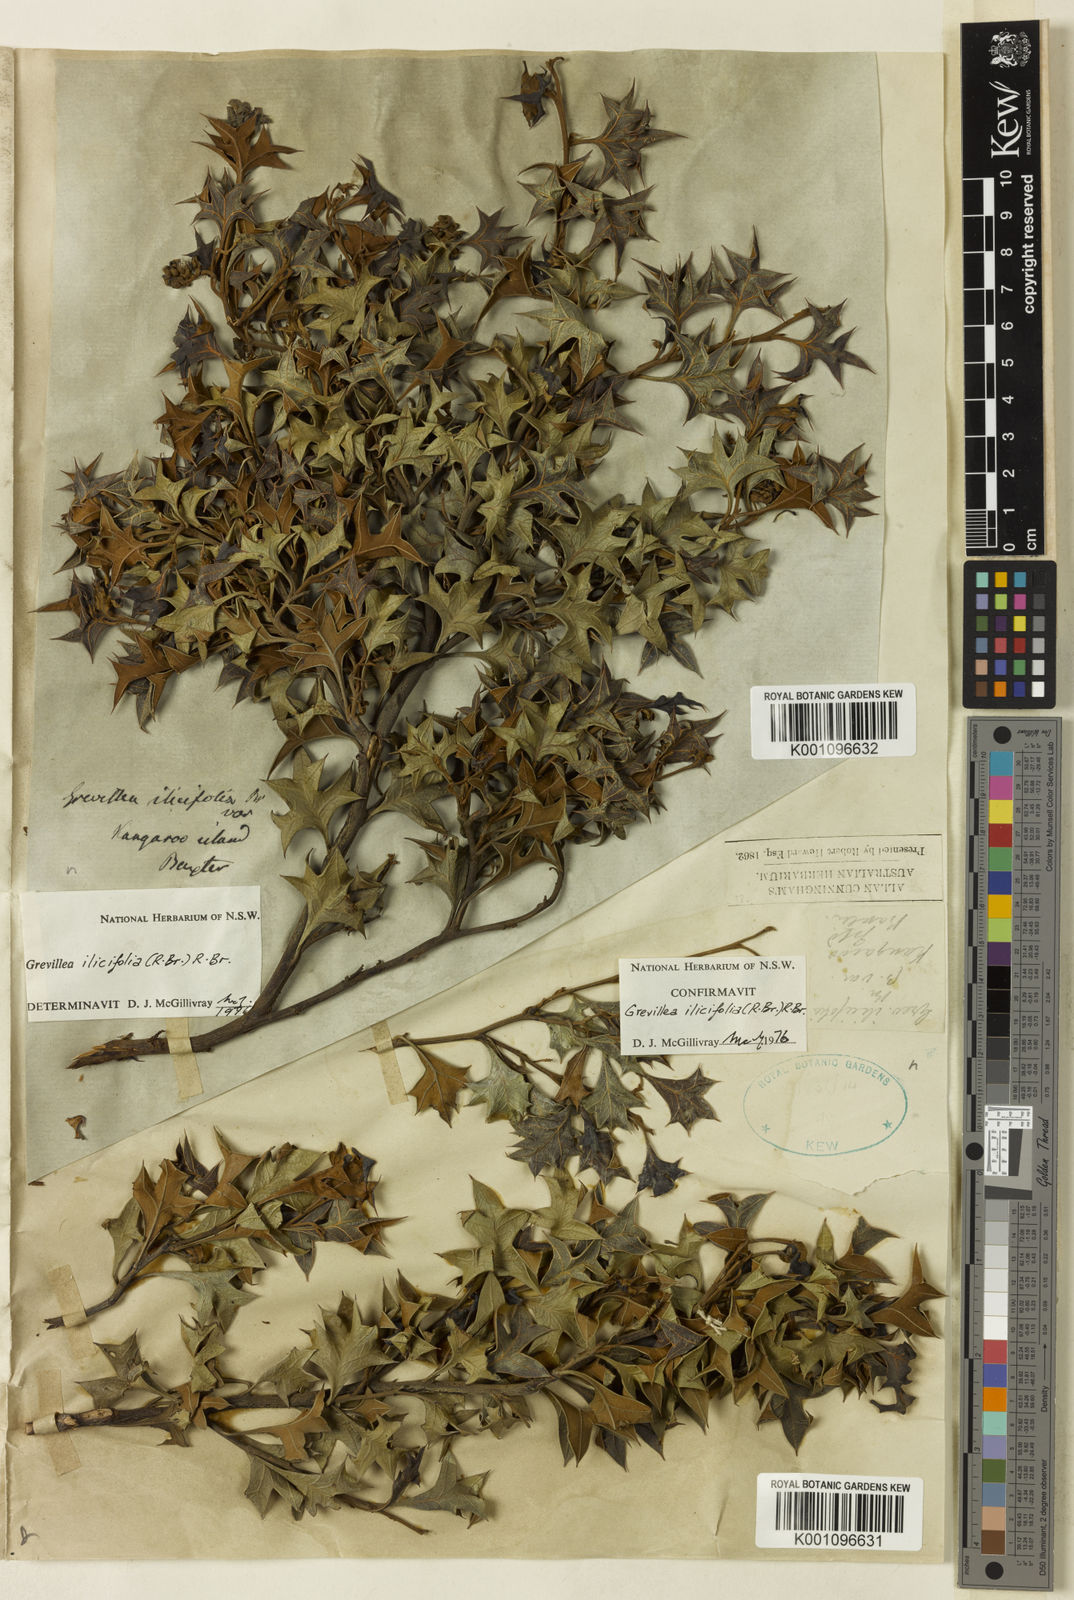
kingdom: Plantae
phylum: Tracheophyta
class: Magnoliopsida
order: Proteales
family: Proteaceae
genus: Grevillea
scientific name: Grevillea dilatata
